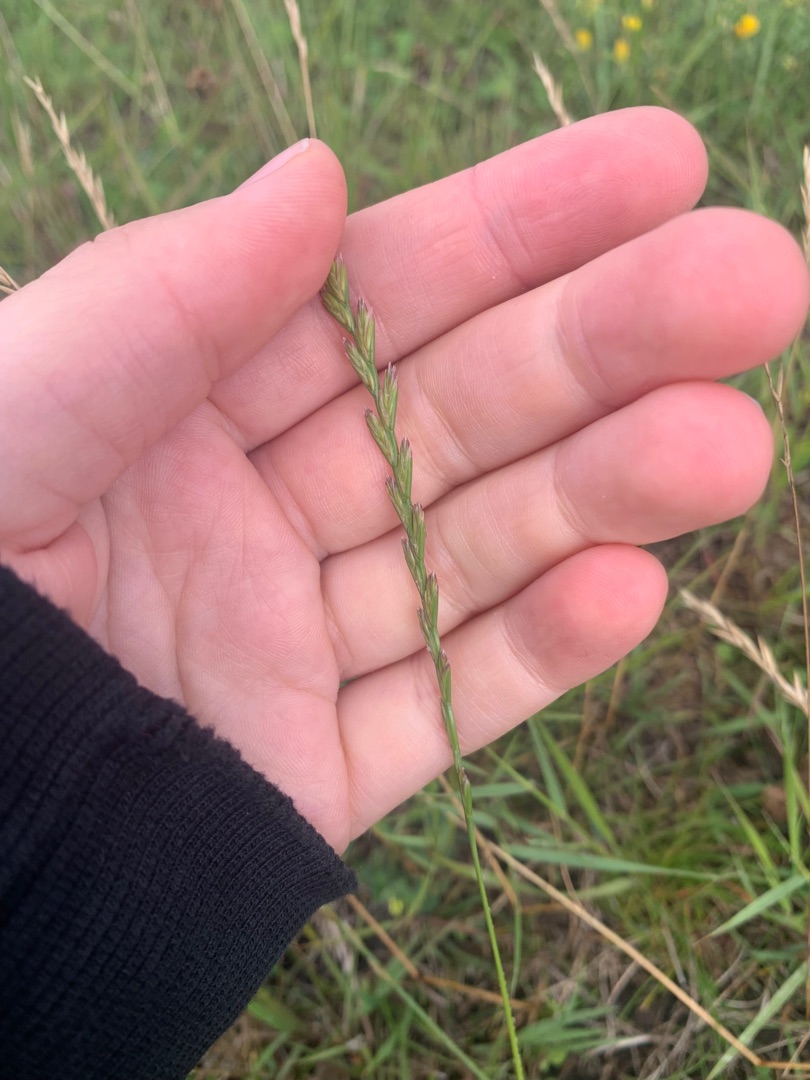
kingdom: Plantae
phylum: Tracheophyta
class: Liliopsida
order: Poales
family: Poaceae
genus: Lolium
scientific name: Lolium perenne
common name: Almindelig rajgræs
